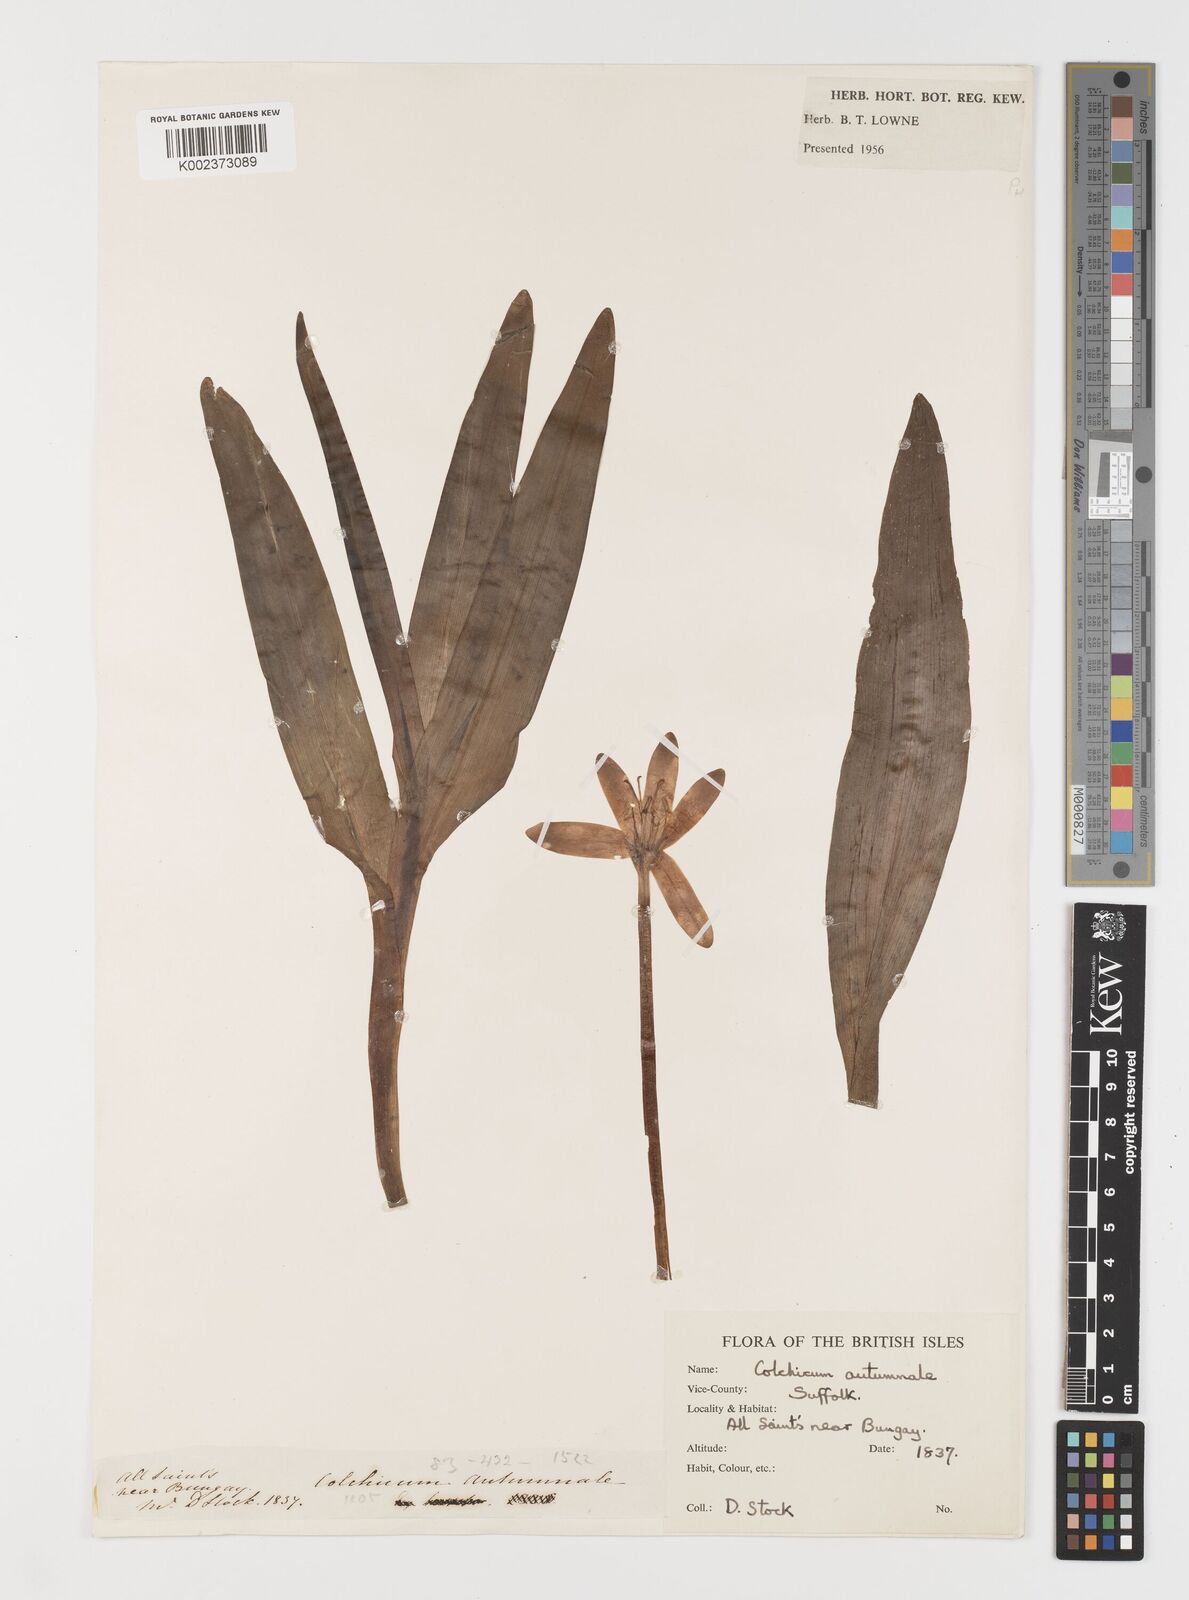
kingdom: Plantae
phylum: Tracheophyta
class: Liliopsida
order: Liliales
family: Colchicaceae
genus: Colchicum
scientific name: Colchicum autumnale
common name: Autumn crocus
